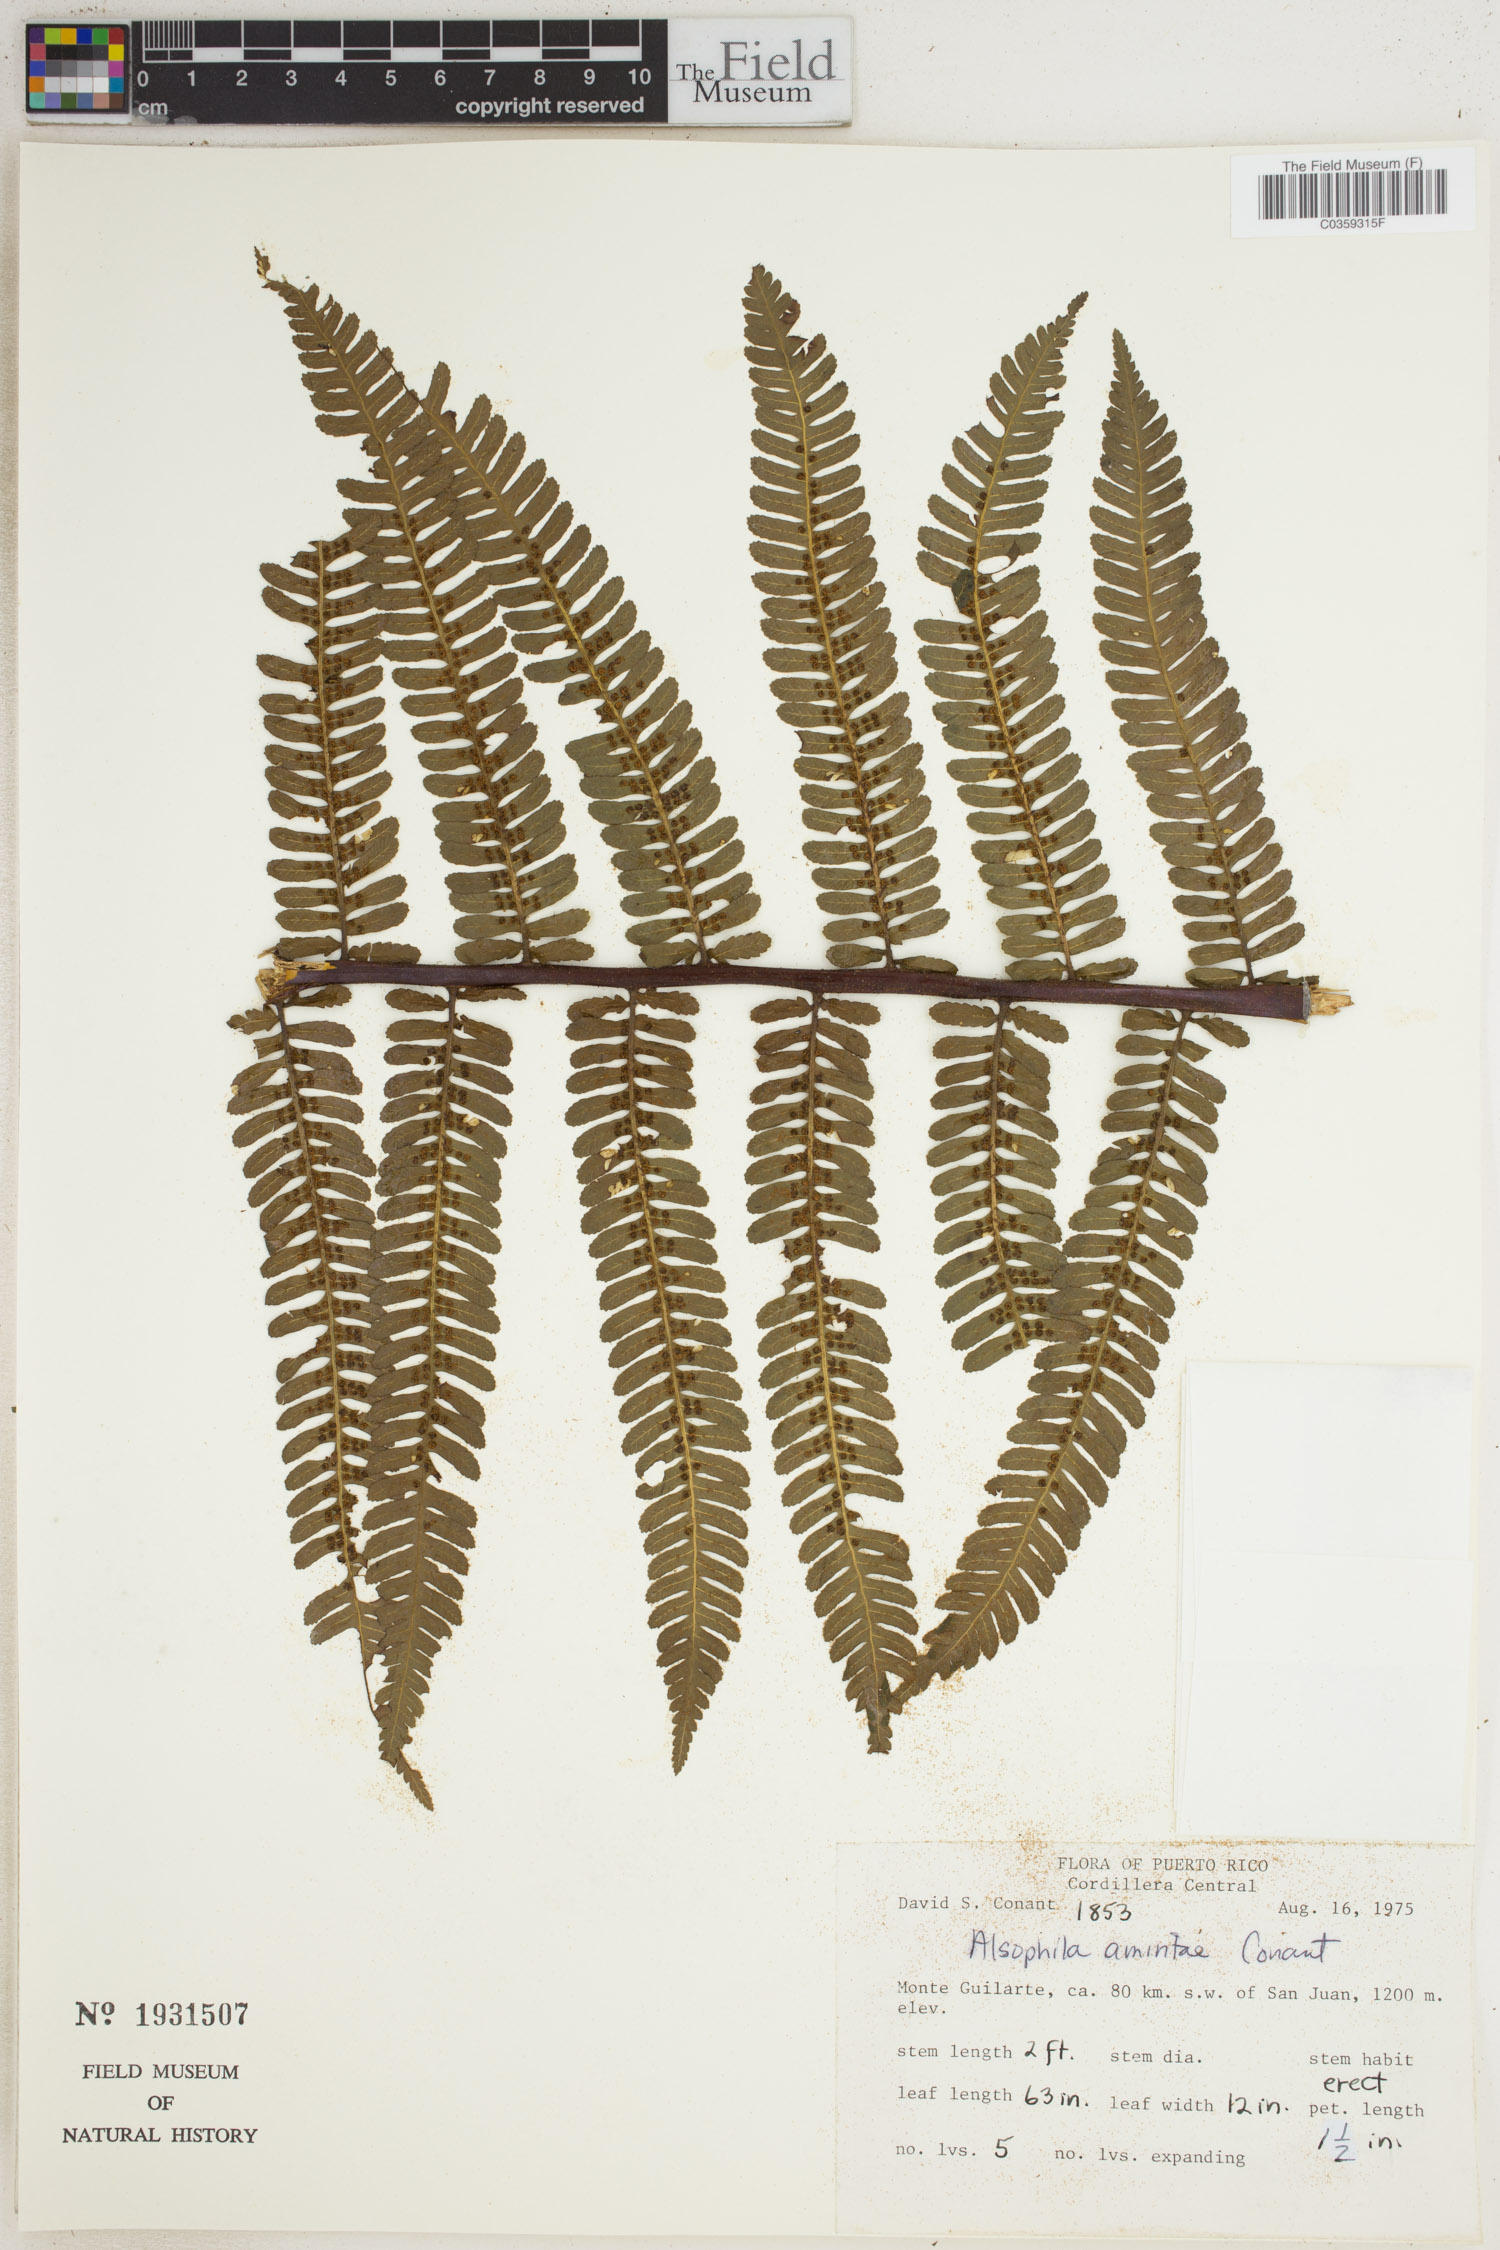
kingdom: Plantae
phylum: Tracheophyta
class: Polypodiopsida
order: Cyatheales
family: Cyatheaceae
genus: Alsophila
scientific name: Alsophila dryopteroides
